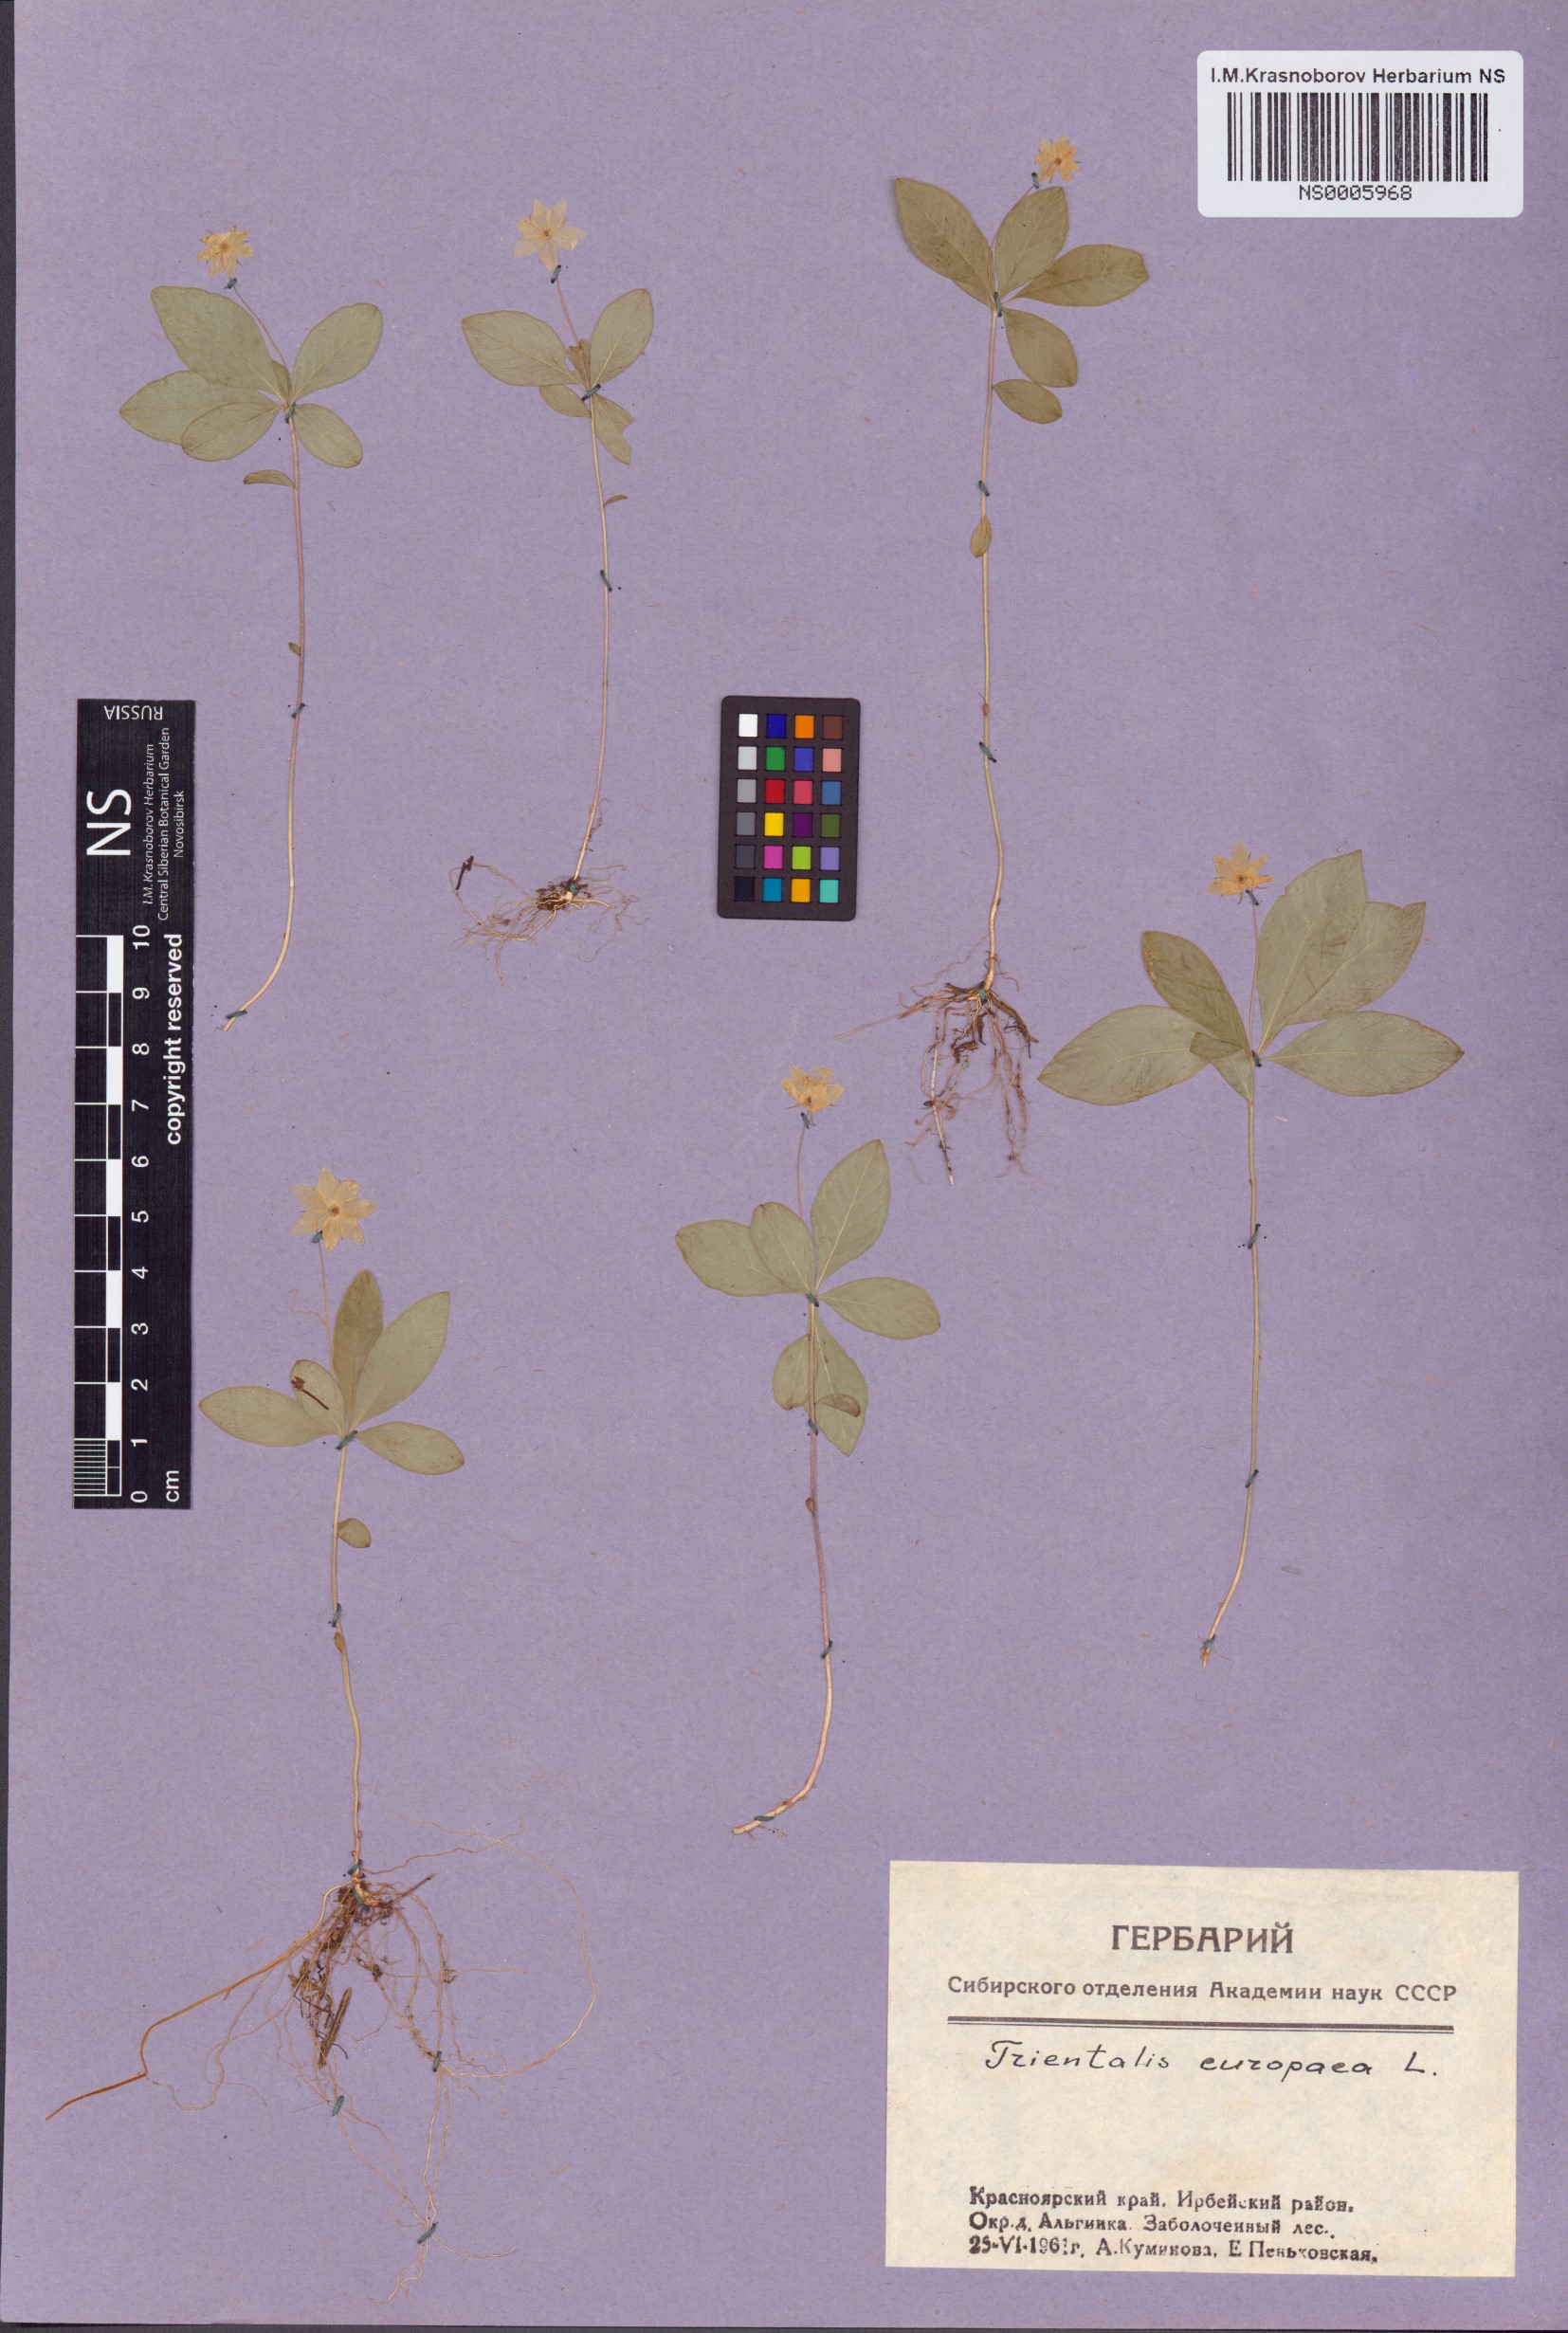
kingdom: Plantae
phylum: Tracheophyta
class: Magnoliopsida
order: Ericales
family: Primulaceae
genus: Lysimachia
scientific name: Lysimachia europaea
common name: Arctic starflower
